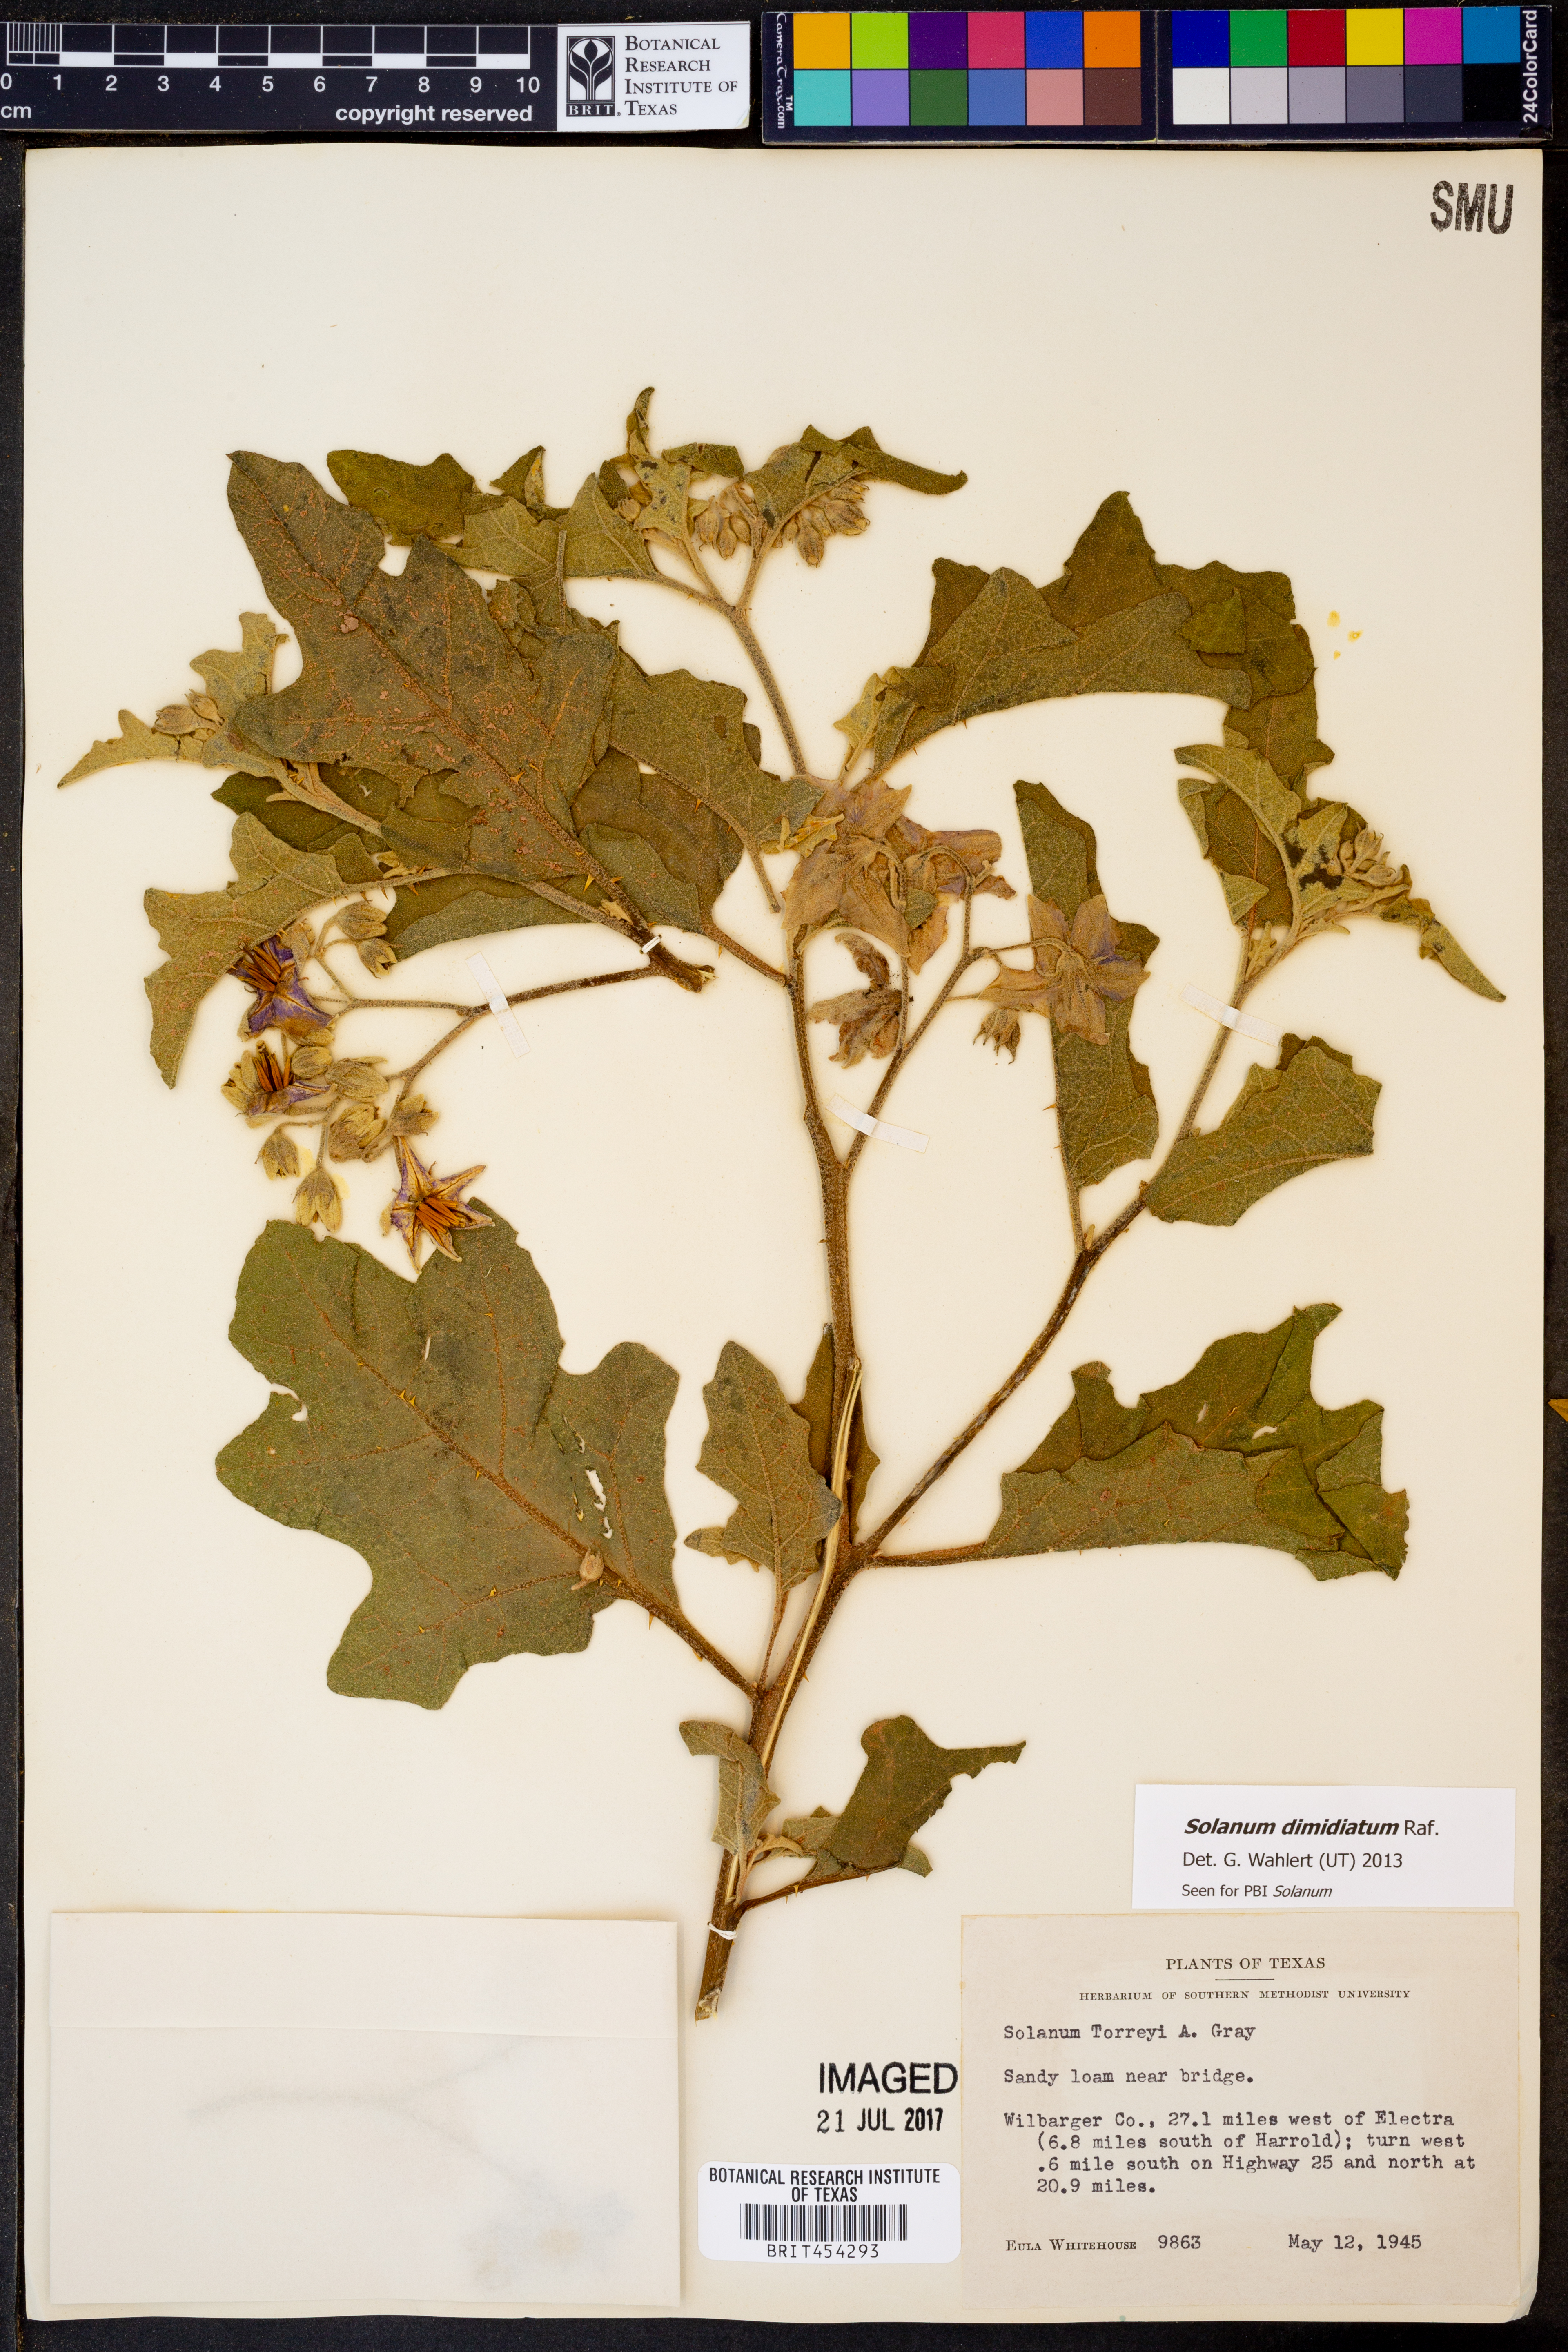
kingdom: Plantae
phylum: Tracheophyta
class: Magnoliopsida
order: Solanales
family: Solanaceae
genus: Solanum
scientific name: Solanum dimidiatum
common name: Carolina horse-nettle
